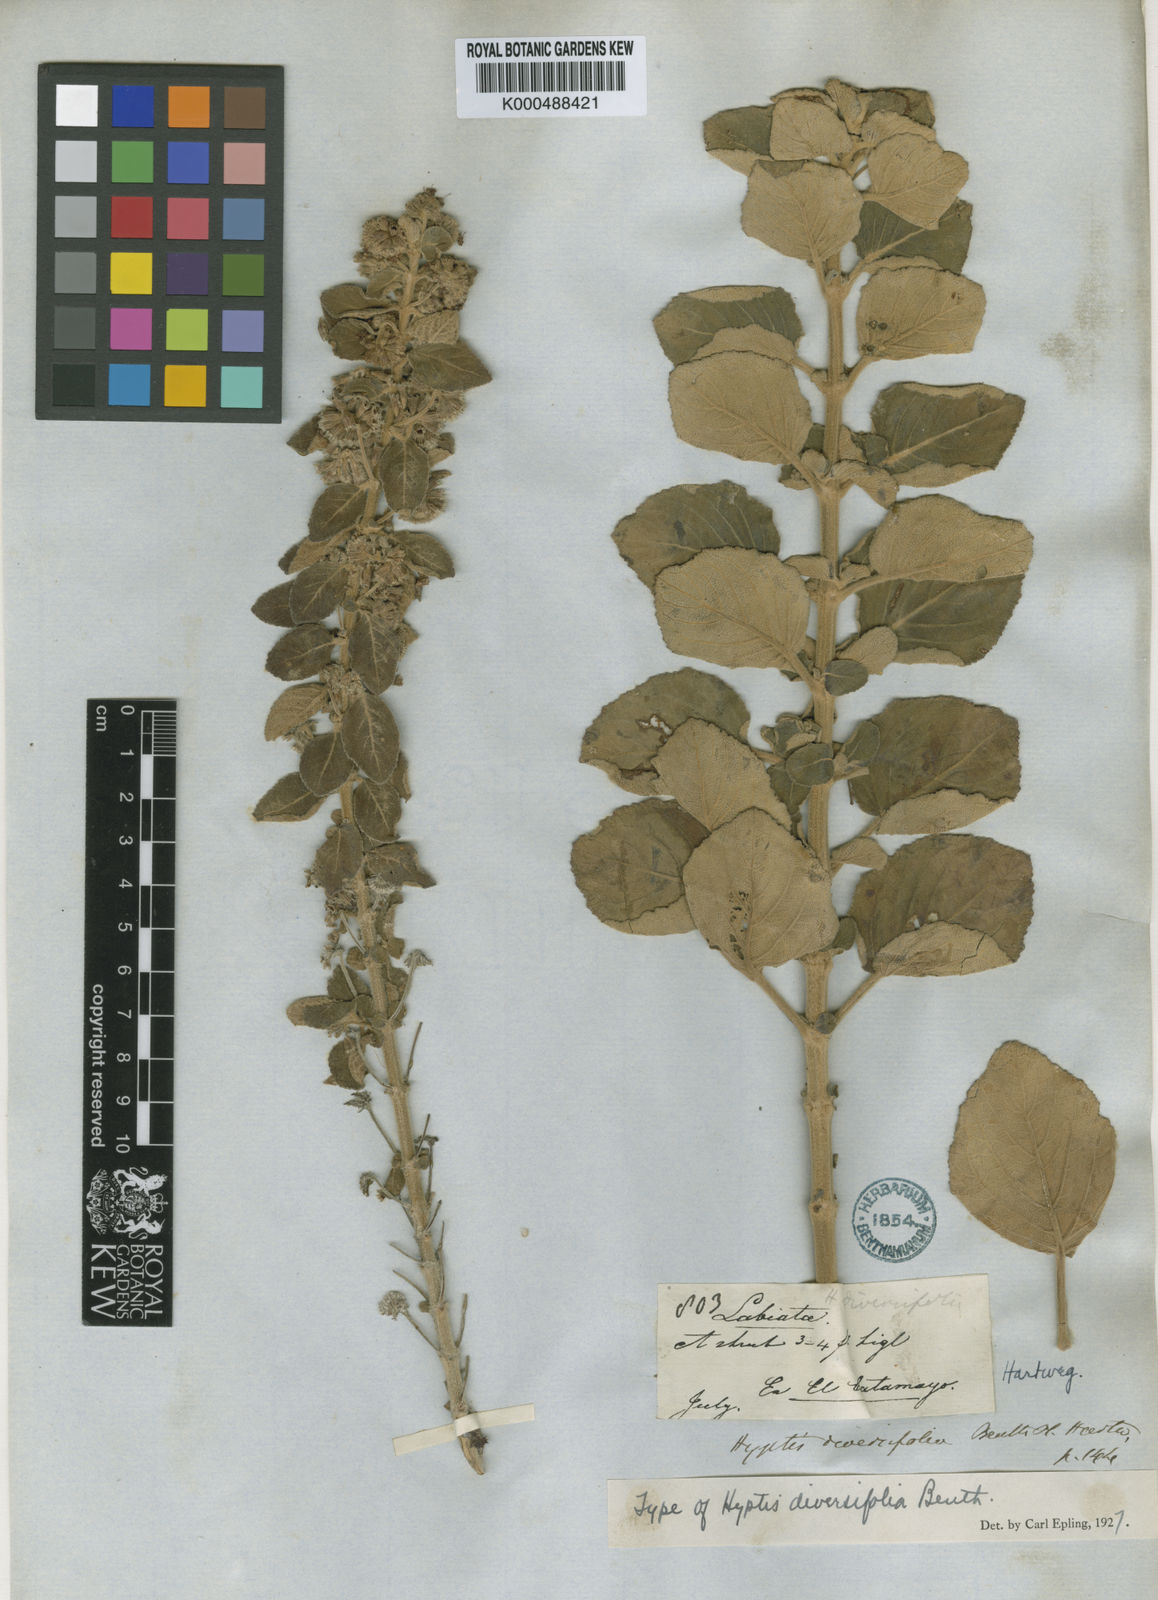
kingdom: Plantae
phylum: Tracheophyta
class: Magnoliopsida
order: Lamiales
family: Lamiaceae
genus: Mesosphaerum
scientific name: Mesosphaerum diversifolium
